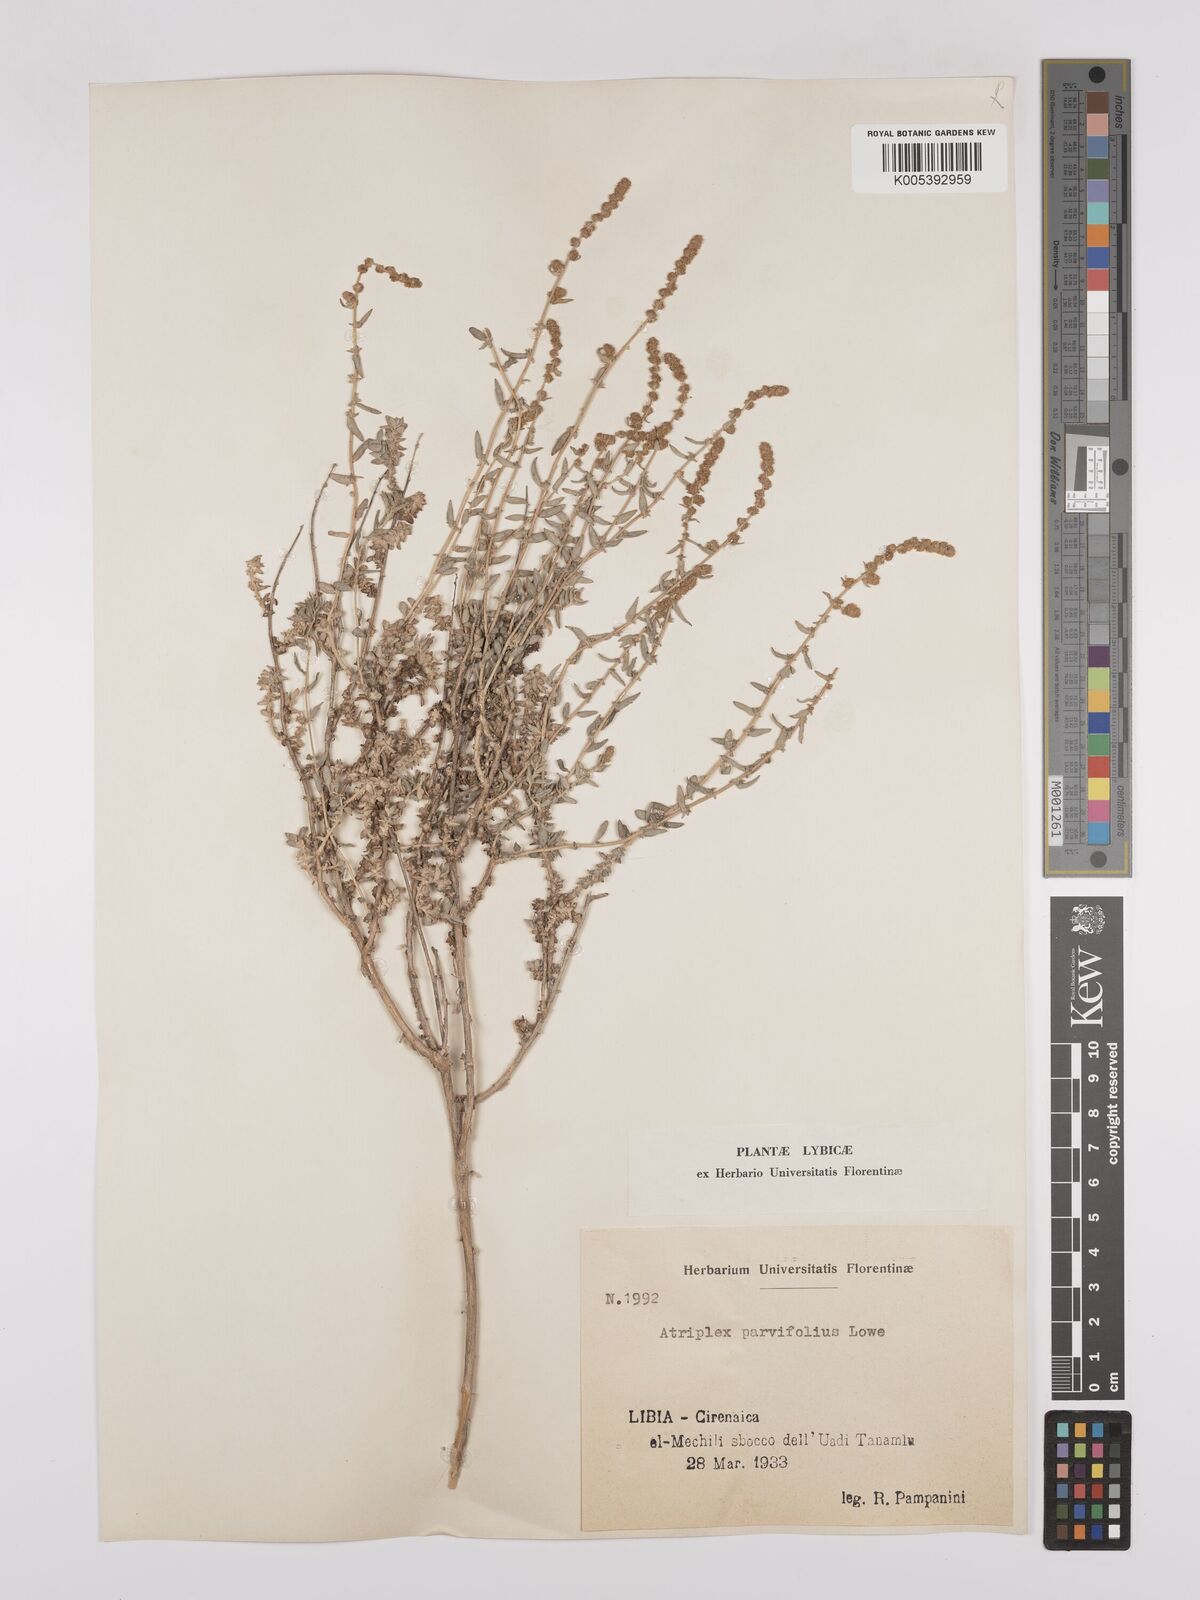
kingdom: Plantae
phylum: Tracheophyta
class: Magnoliopsida
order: Caryophyllales
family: Amaranthaceae
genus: Atriplex
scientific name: Atriplex
